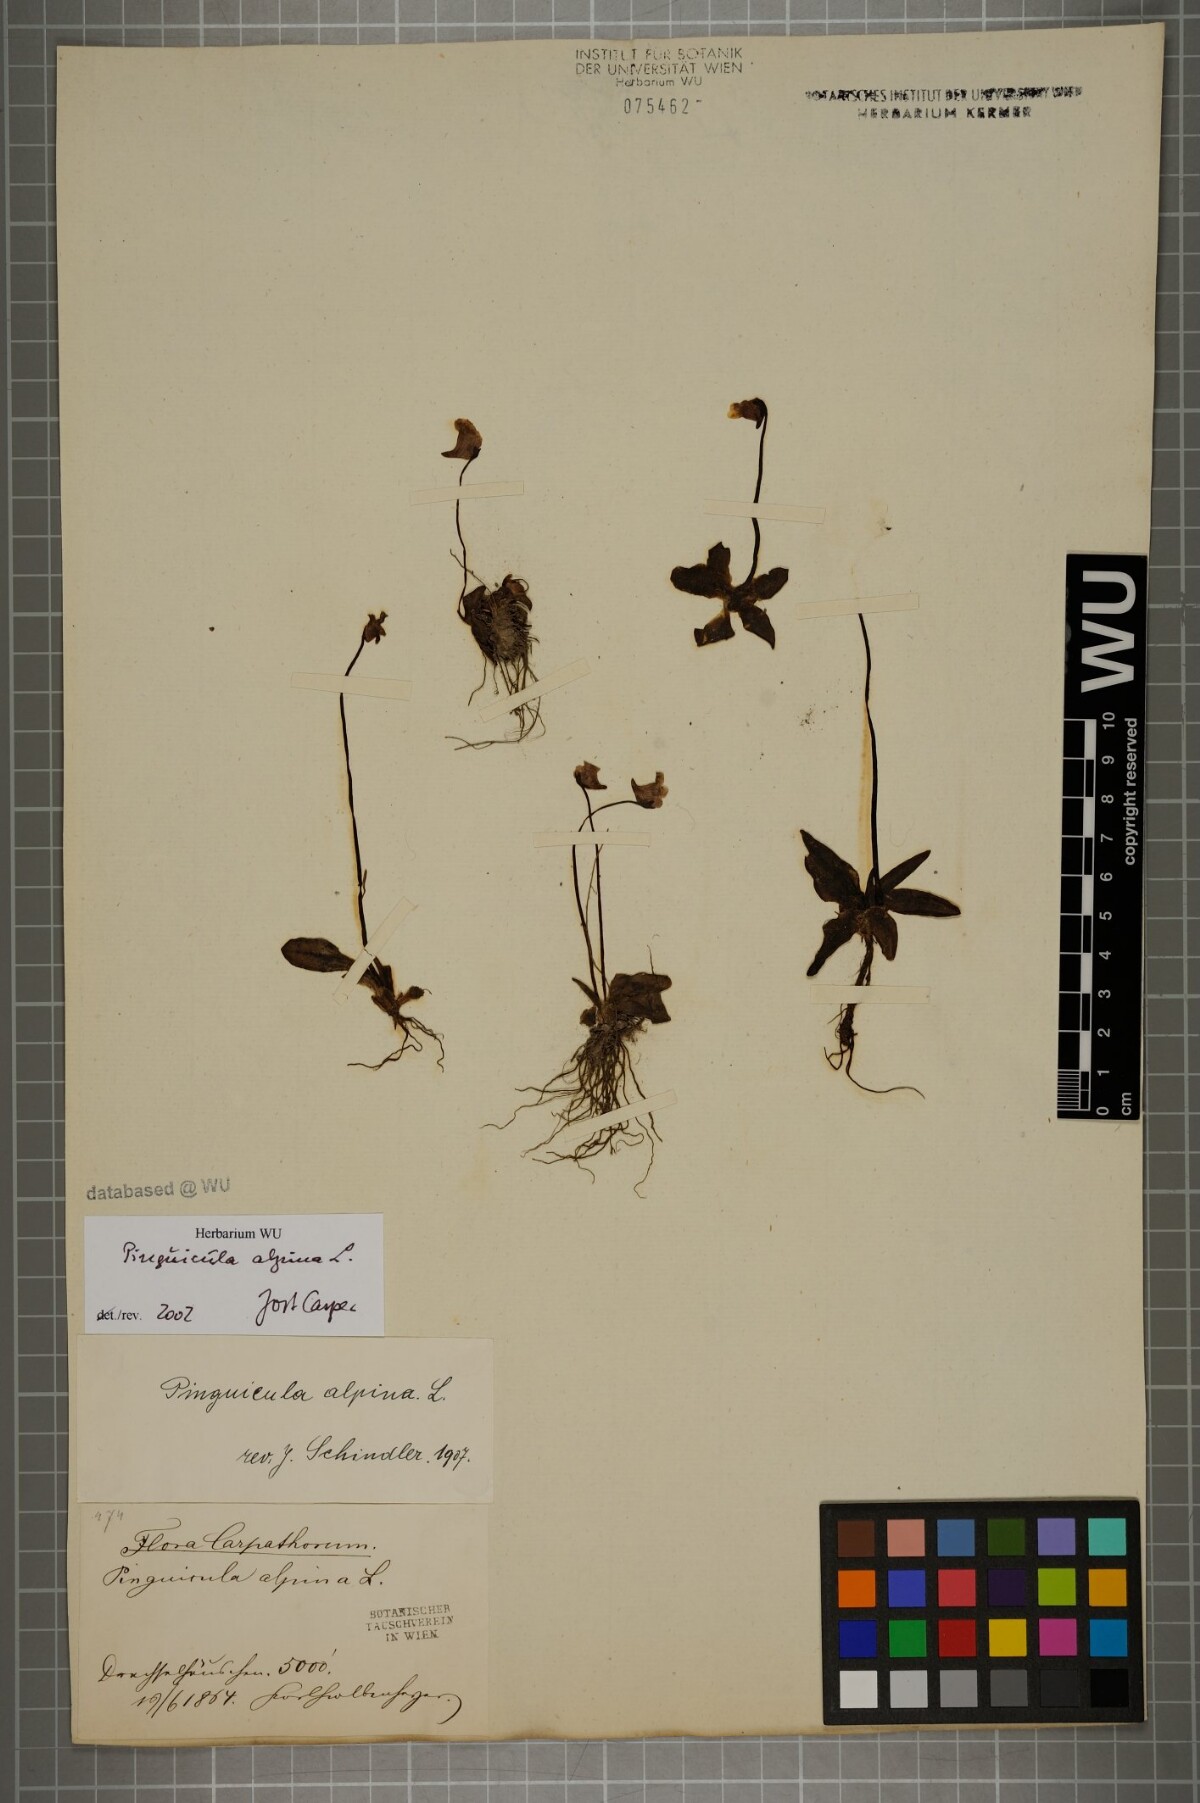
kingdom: Plantae
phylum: Tracheophyta
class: Magnoliopsida
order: Lamiales
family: Lentibulariaceae
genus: Pinguicula
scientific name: Pinguicula alpina
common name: Alpine butterwort
